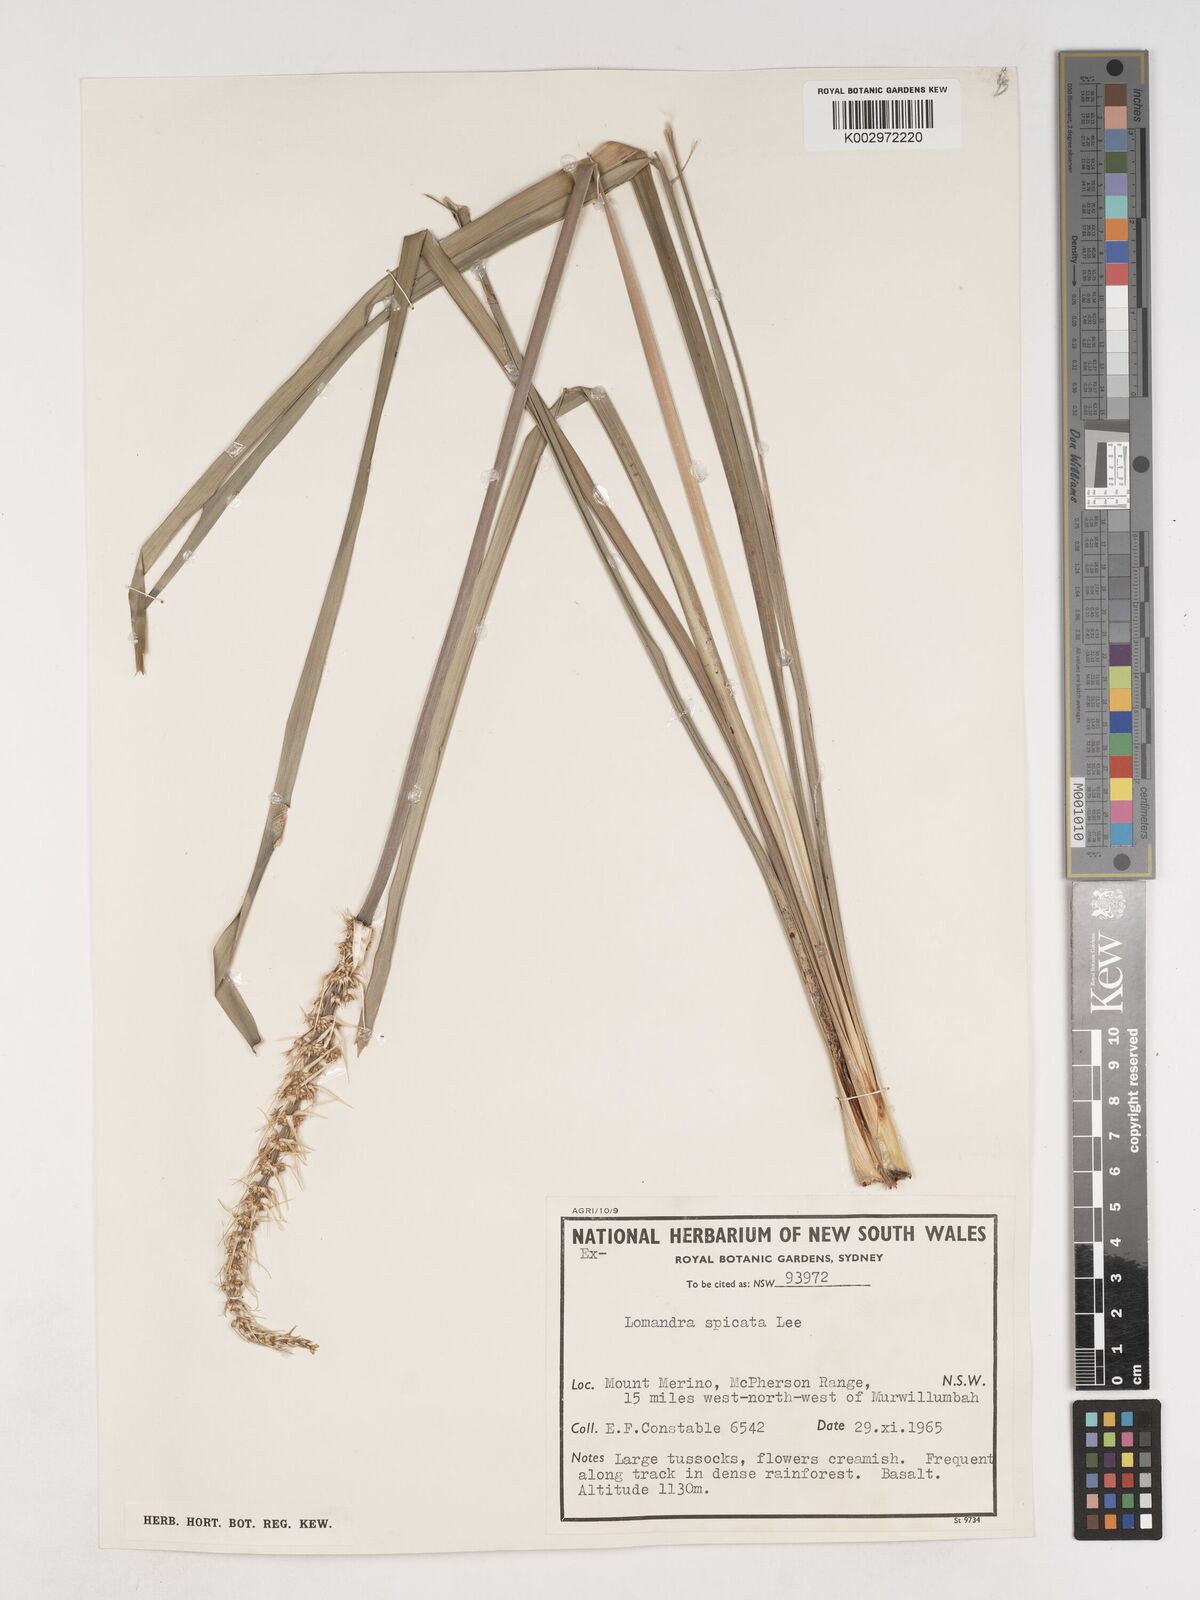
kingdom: Plantae
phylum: Tracheophyta
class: Liliopsida
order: Asparagales
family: Asparagaceae
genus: Lomandra
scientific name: Lomandra spicata
